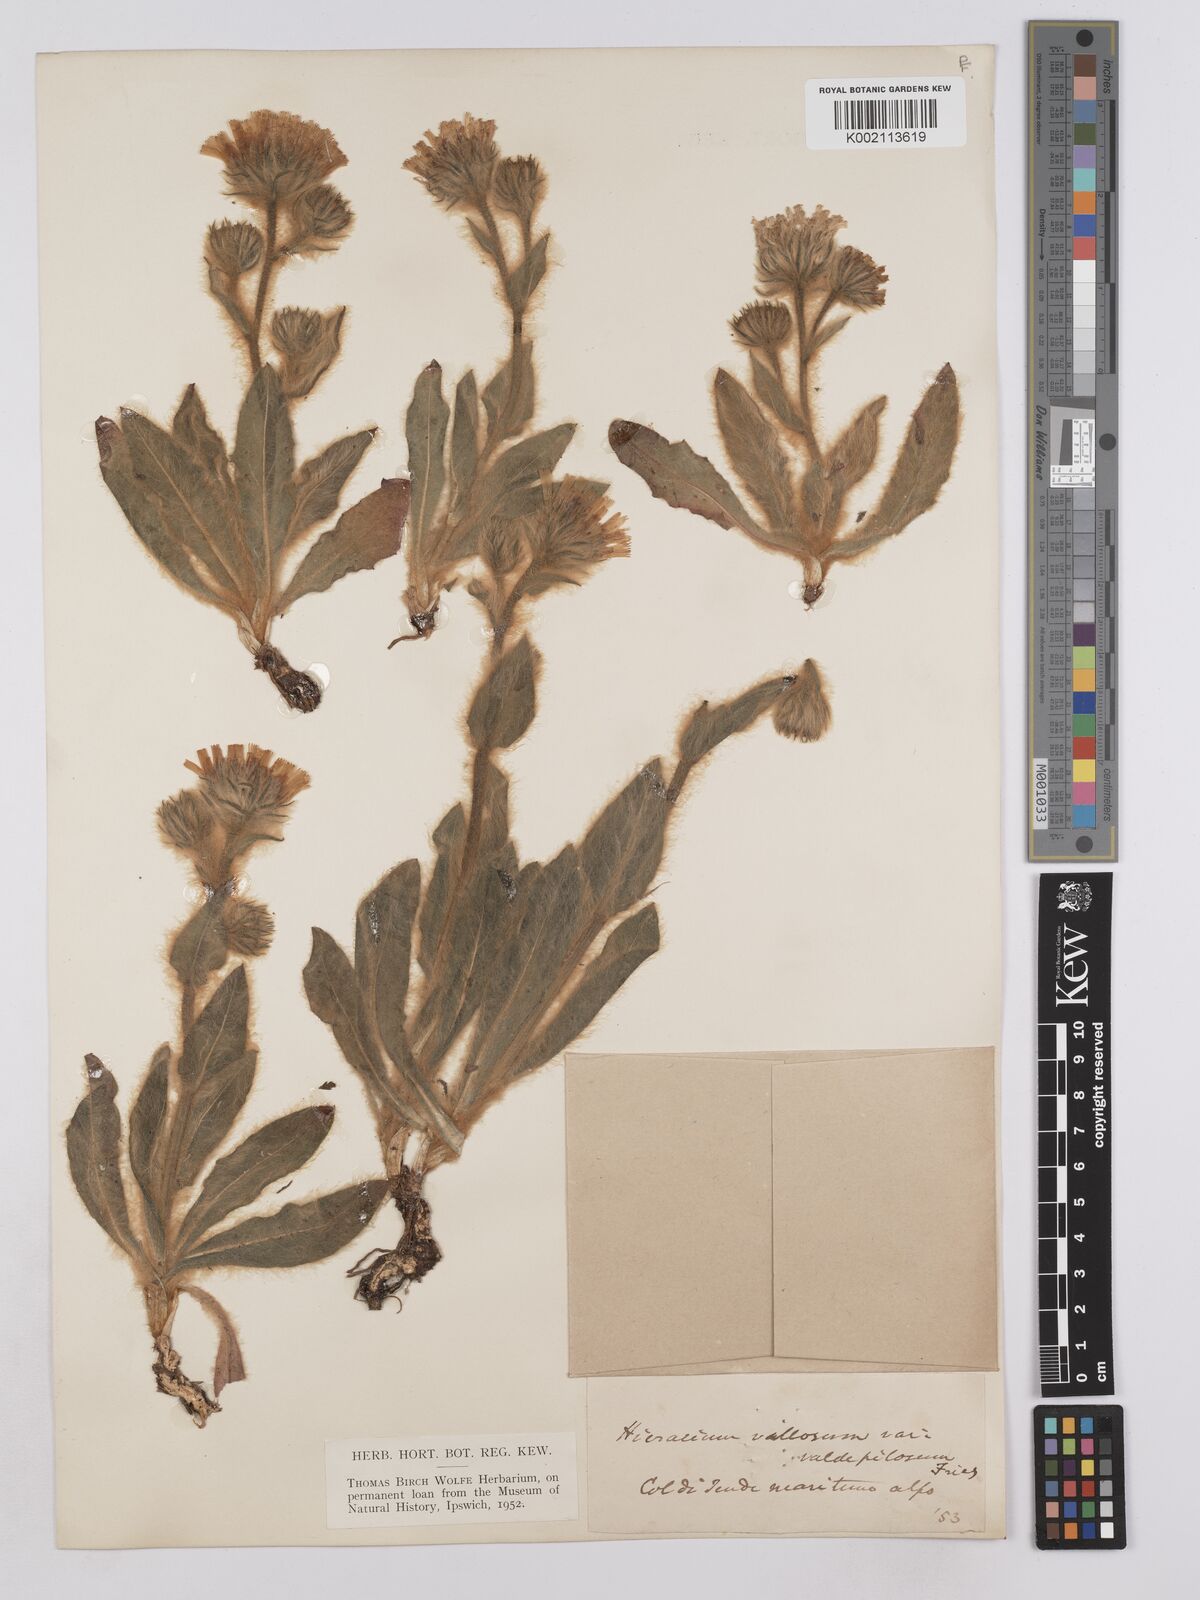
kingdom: Plantae
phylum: Tracheophyta
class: Magnoliopsida
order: Asterales
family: Asteraceae
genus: Hieracium
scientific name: Hieracium villosum
